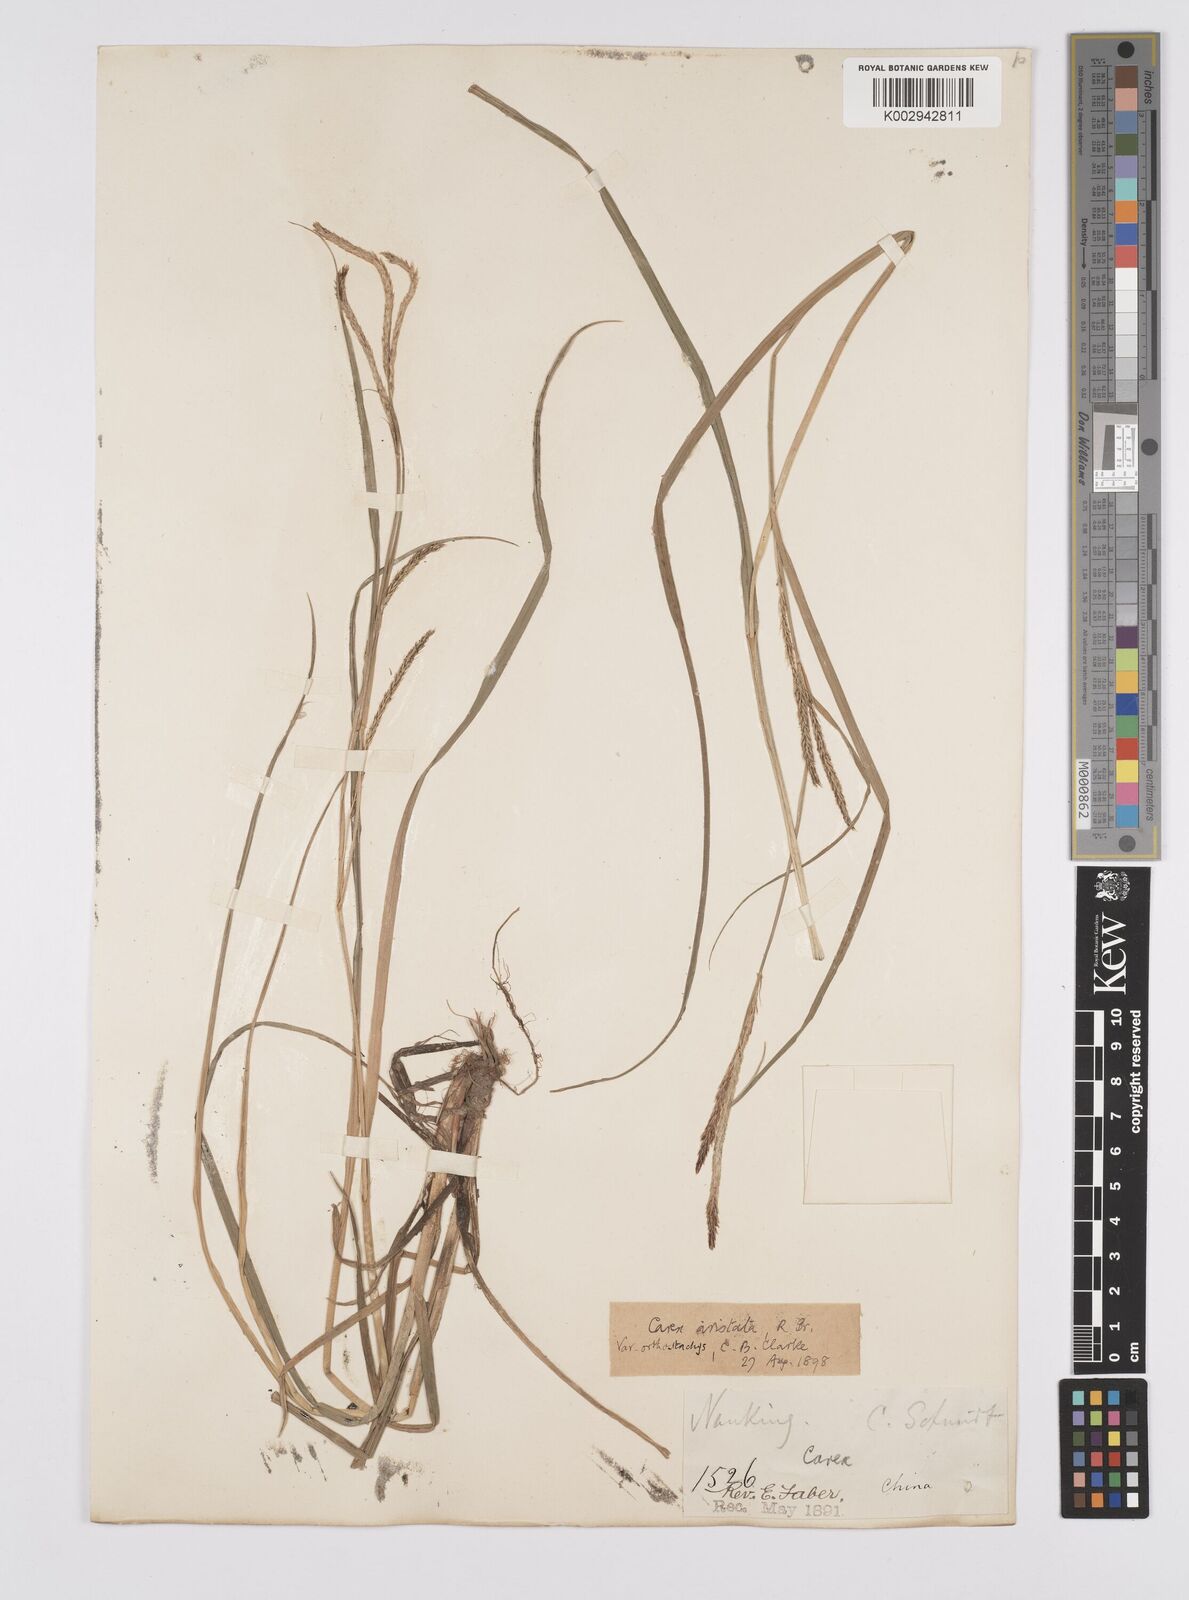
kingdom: Plantae
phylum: Tracheophyta
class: Liliopsida
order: Poales
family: Cyperaceae
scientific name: Cyperaceae
